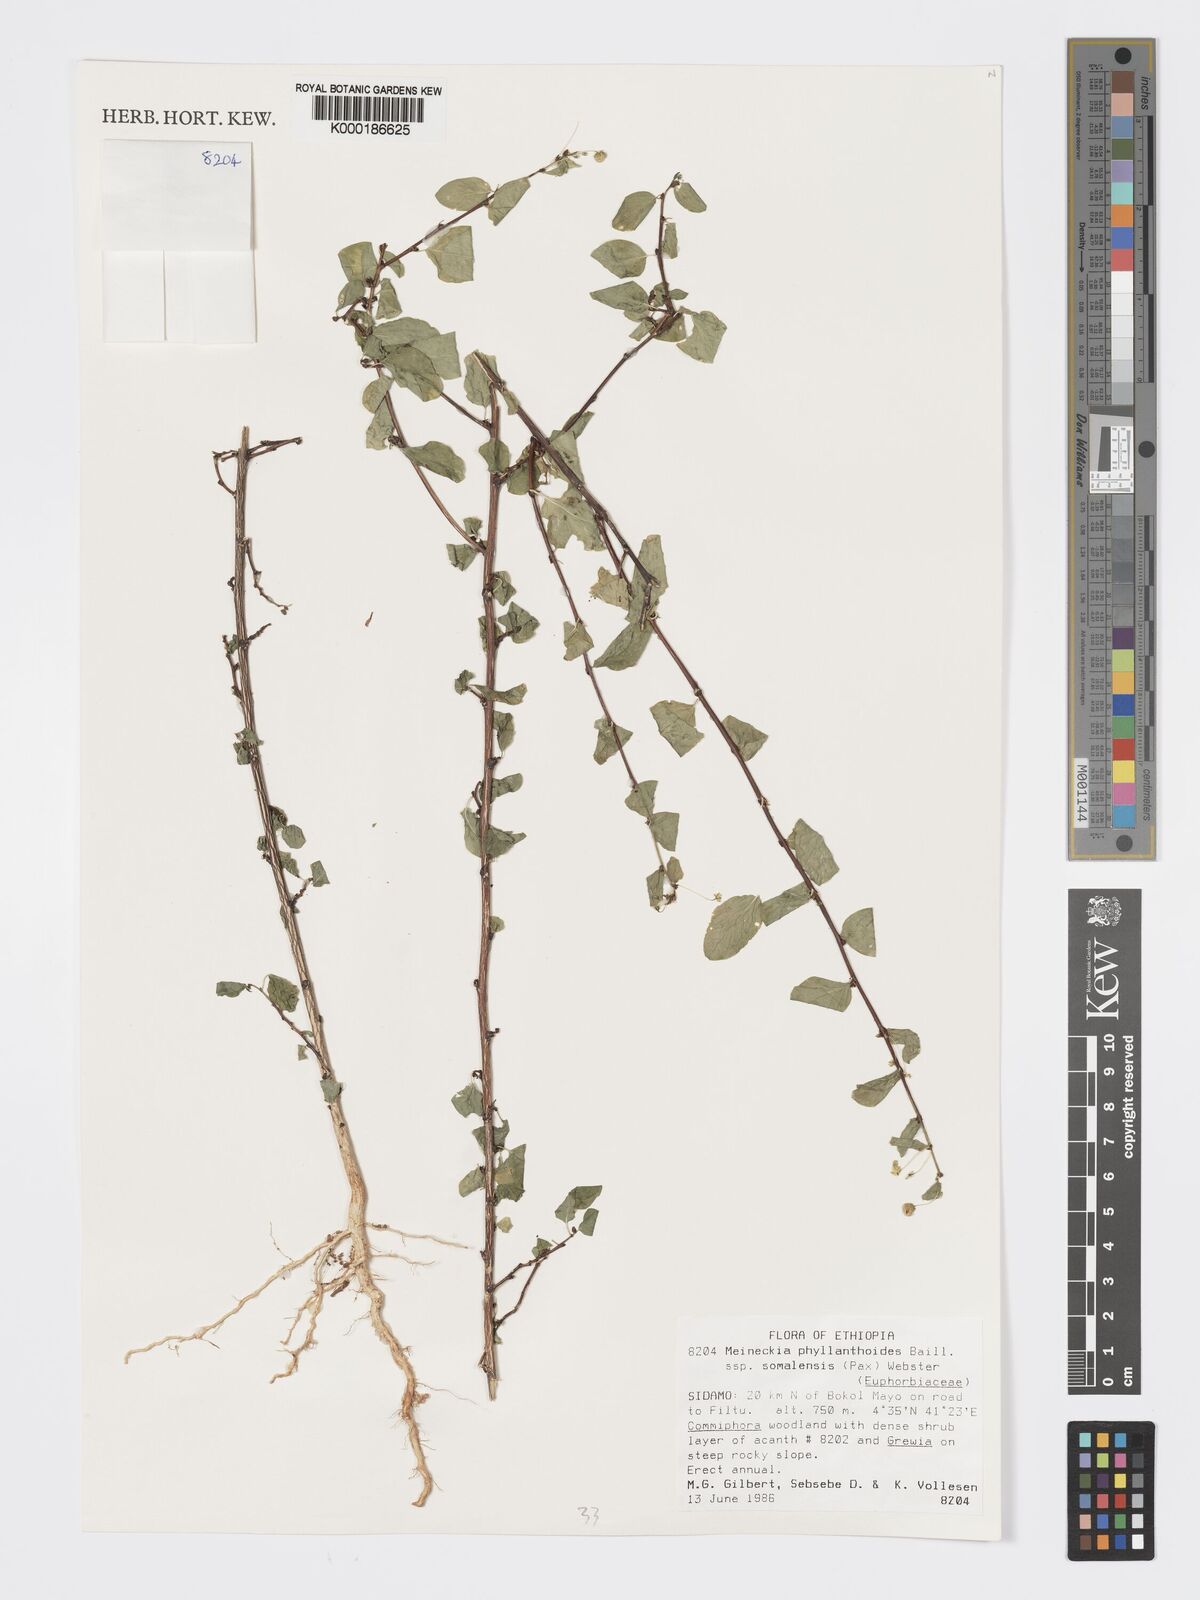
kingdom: Plantae
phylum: Tracheophyta
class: Magnoliopsida
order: Malpighiales
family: Phyllanthaceae
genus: Meineckia
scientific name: Meineckia phyllanthoides
